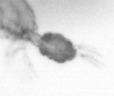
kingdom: Animalia
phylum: Arthropoda
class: Copepoda
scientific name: Copepoda
